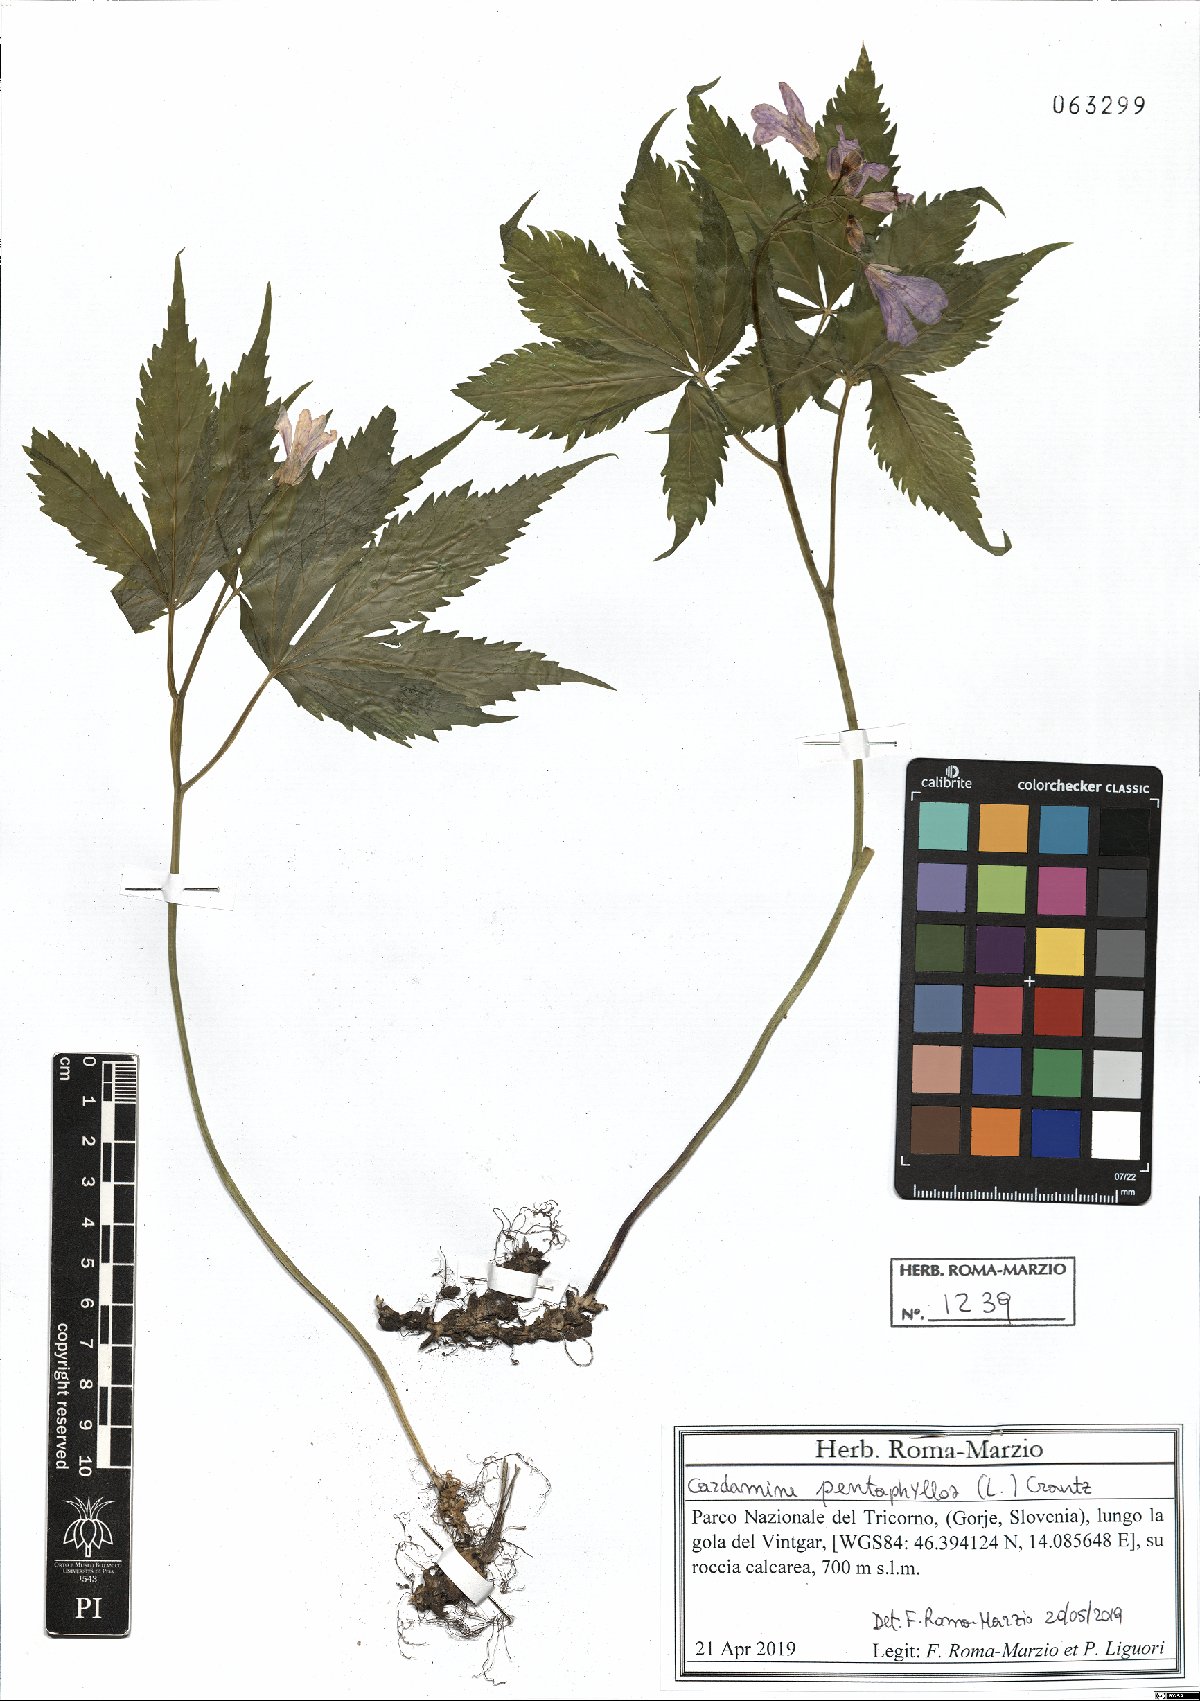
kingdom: Plantae
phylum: Tracheophyta
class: Magnoliopsida
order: Brassicales
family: Brassicaceae
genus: Cardamine
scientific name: Cardamine pentaphyllos
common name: Five-leaflet bitter-cress
